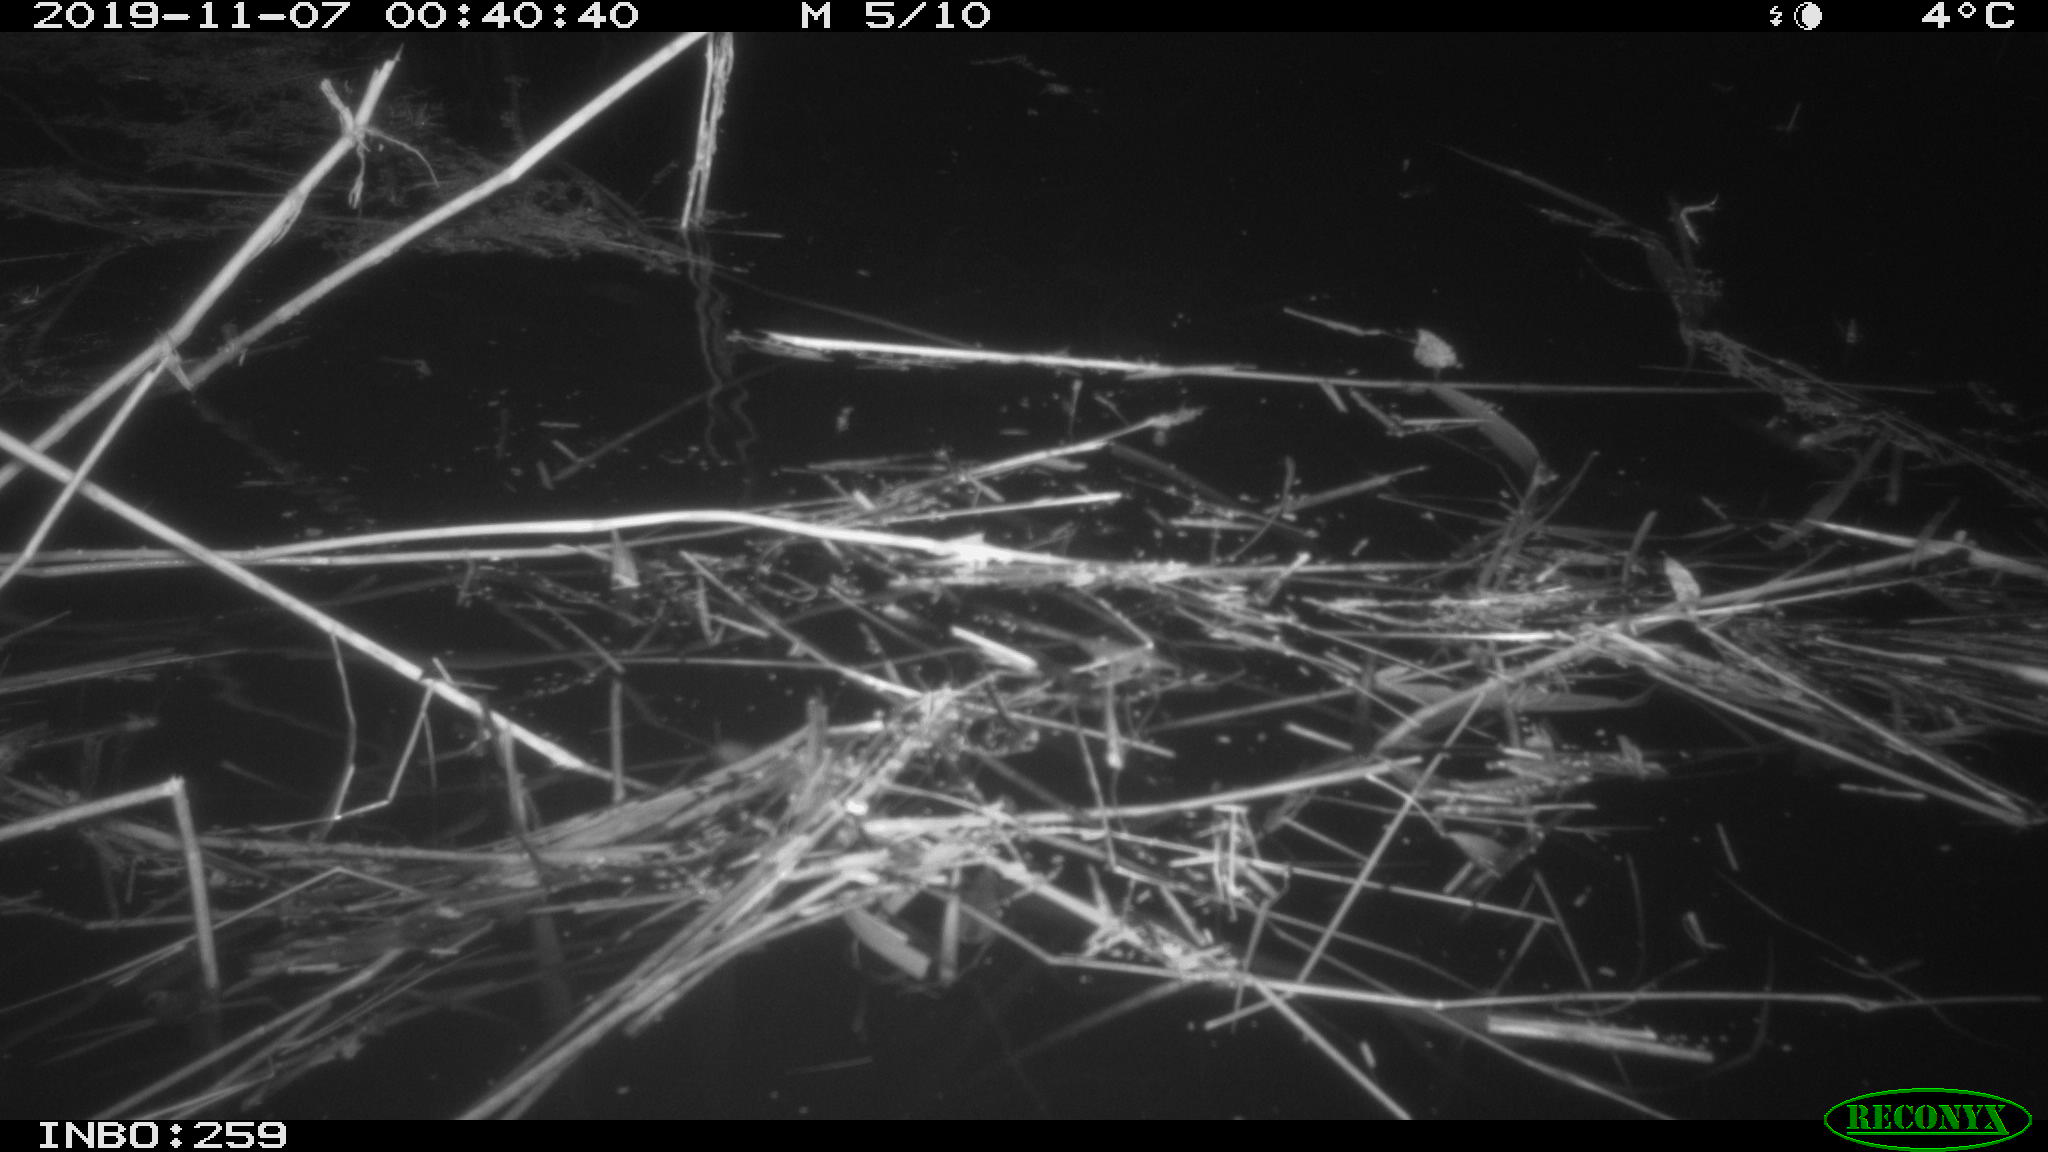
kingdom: Animalia
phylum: Chordata
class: Mammalia
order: Rodentia
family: Muridae
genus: Rattus
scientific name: Rattus norvegicus
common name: Brown rat
